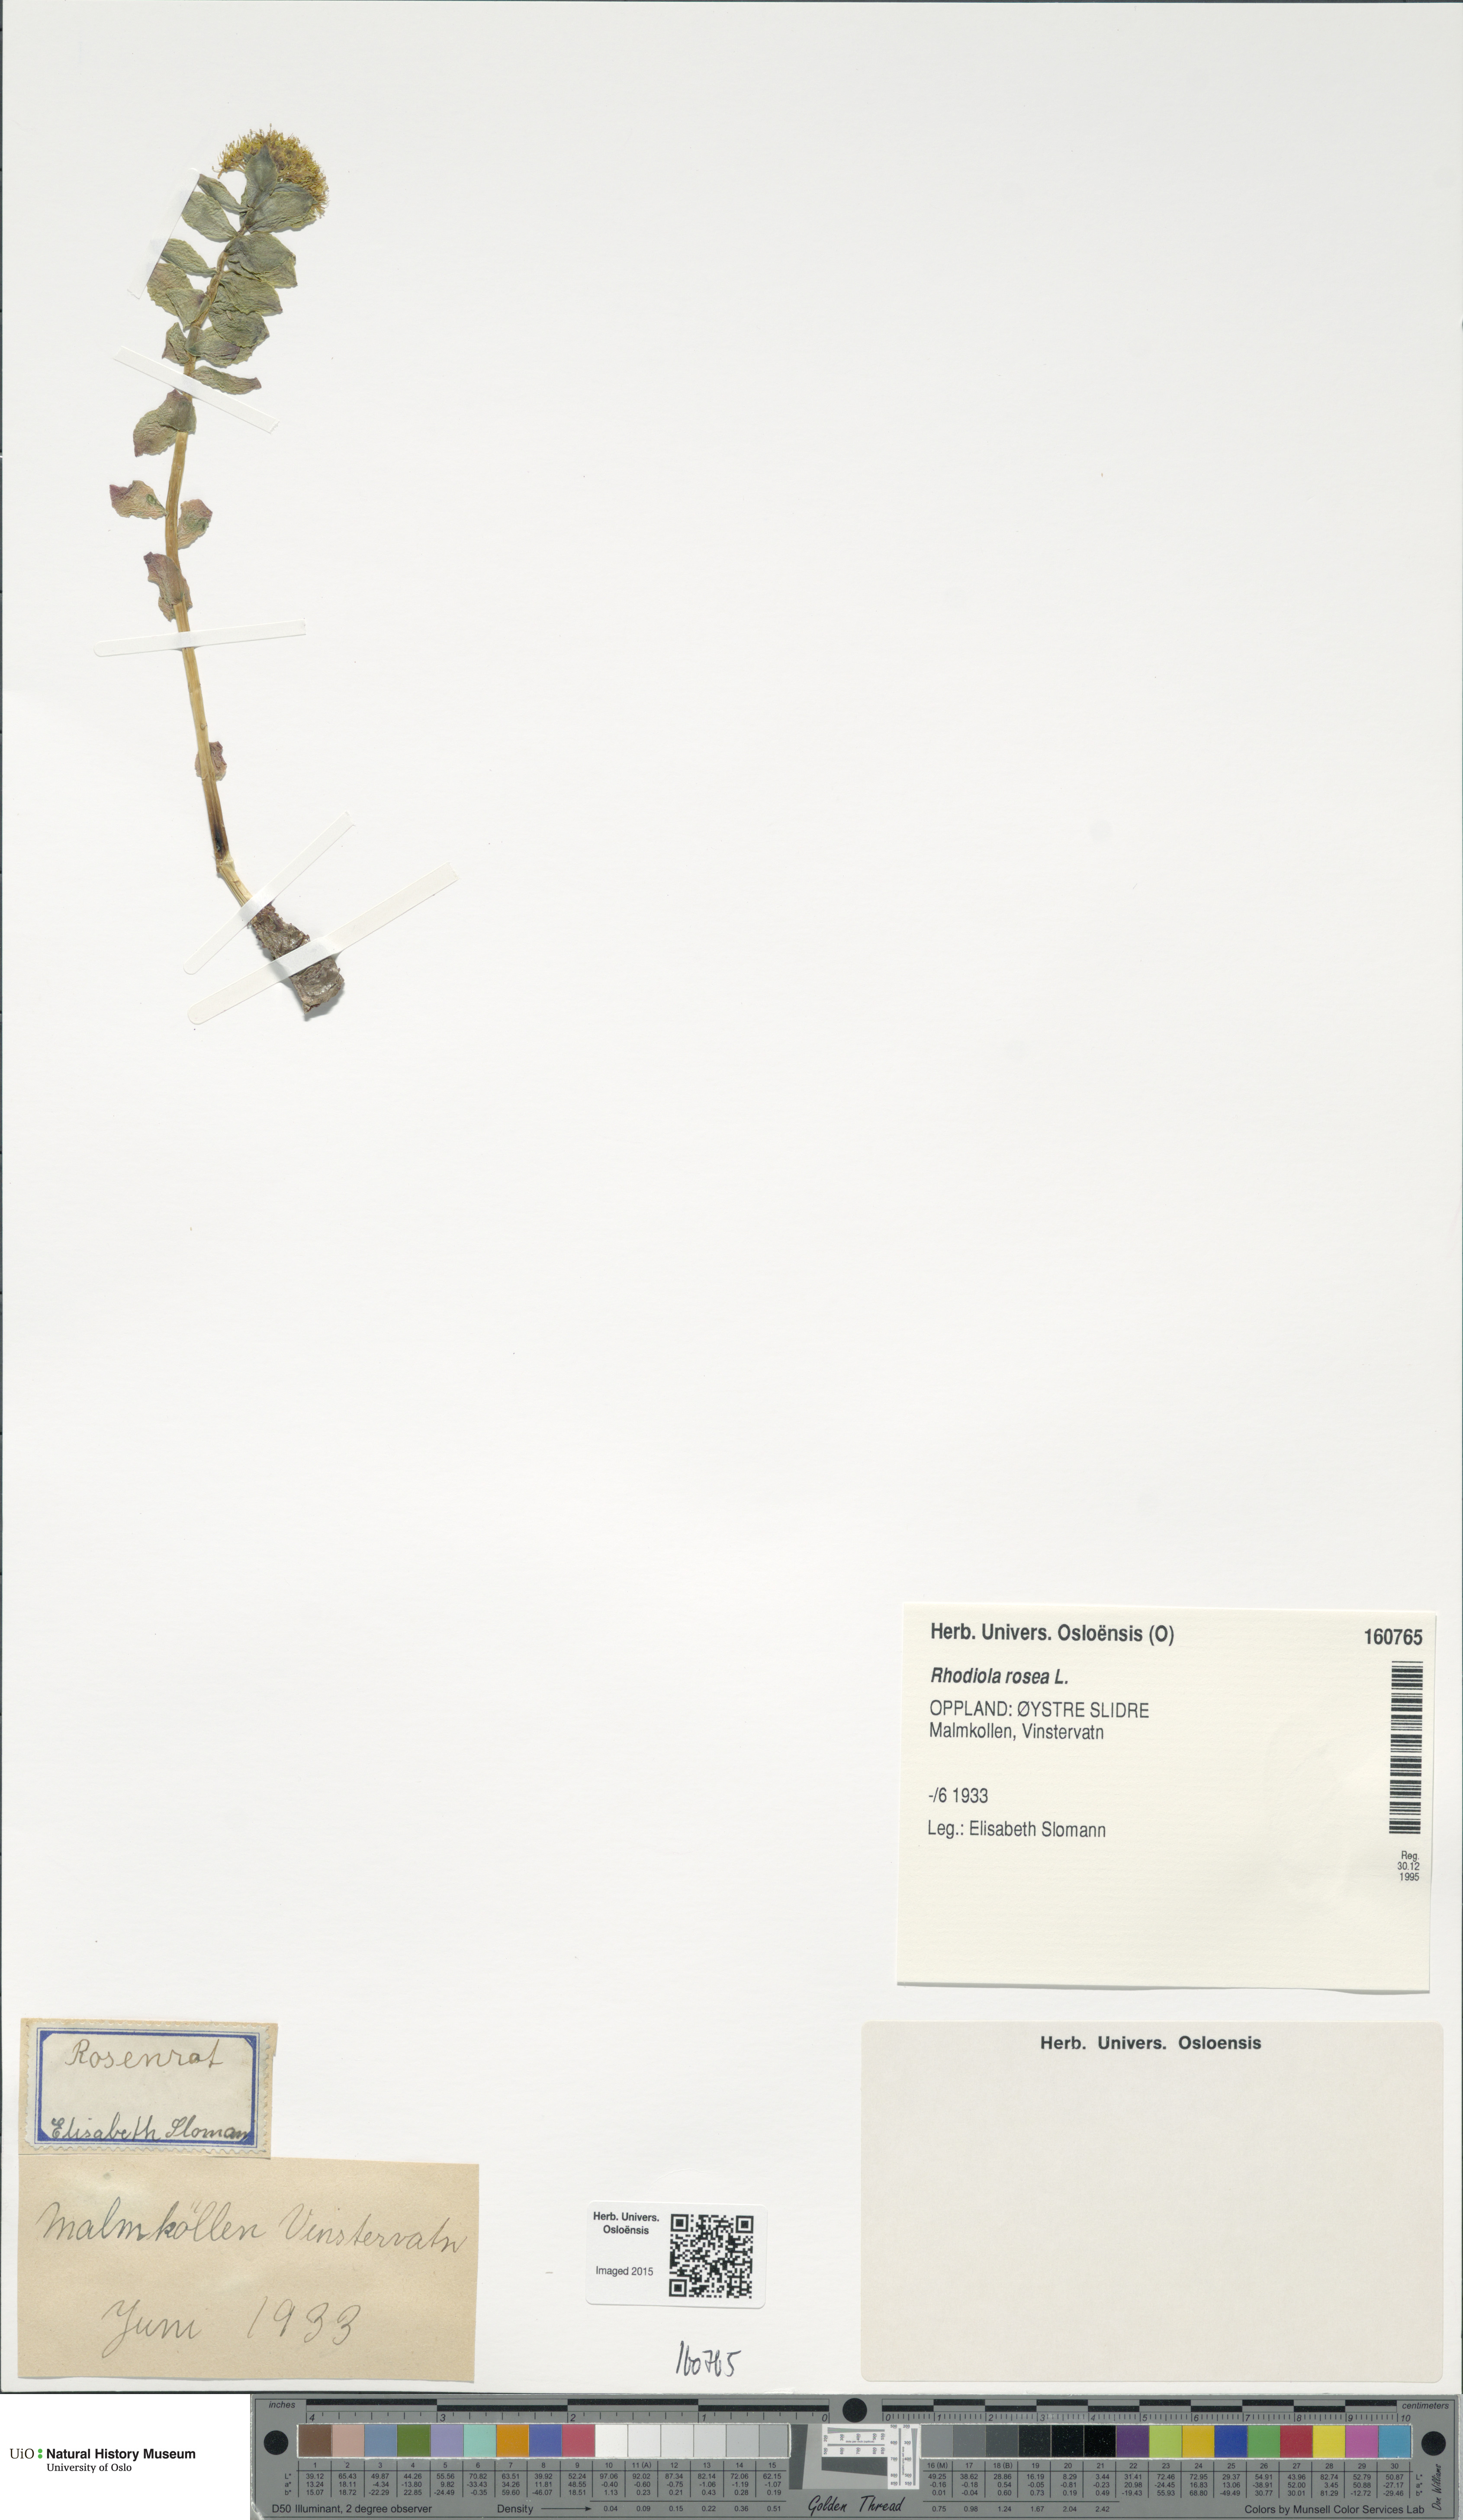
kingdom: Plantae
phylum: Tracheophyta
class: Magnoliopsida
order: Saxifragales
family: Crassulaceae
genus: Rhodiola
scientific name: Rhodiola rosea
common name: Roseroot
